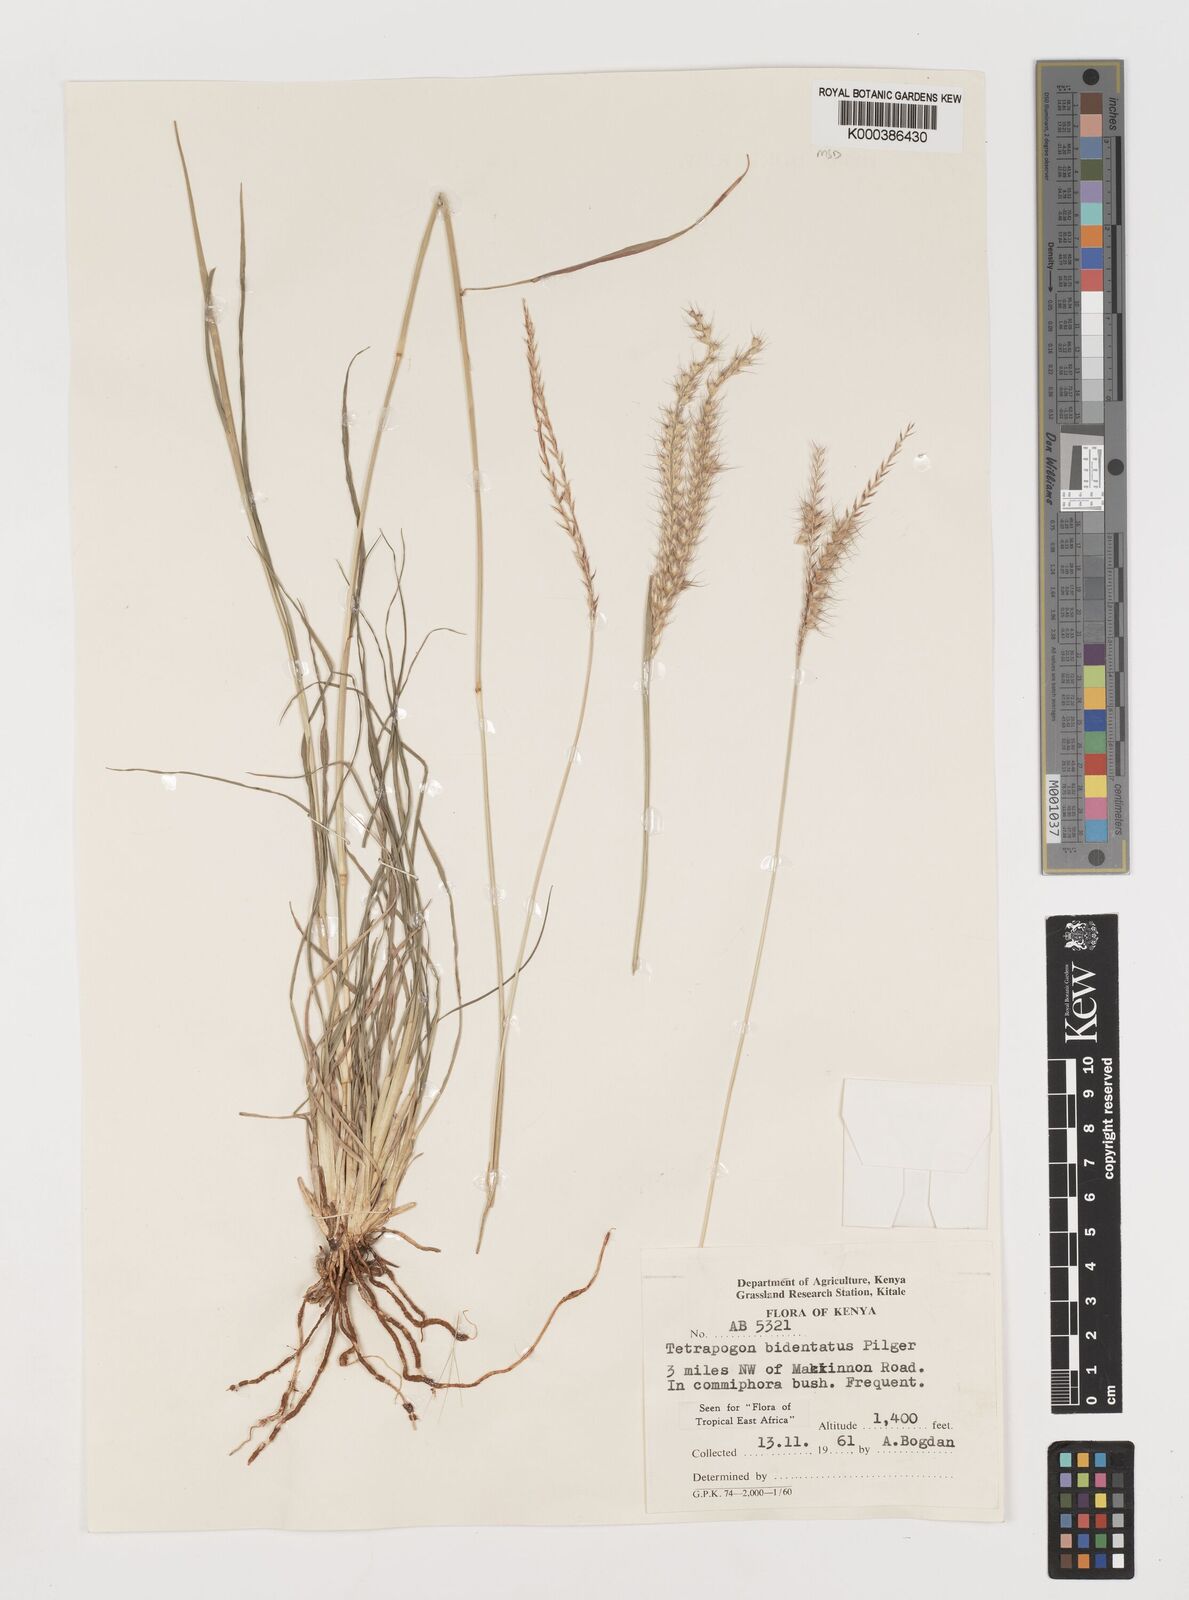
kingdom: Plantae
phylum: Tracheophyta
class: Liliopsida
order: Poales
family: Poaceae
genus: Tetrapogon
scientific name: Tetrapogon bidentatus
